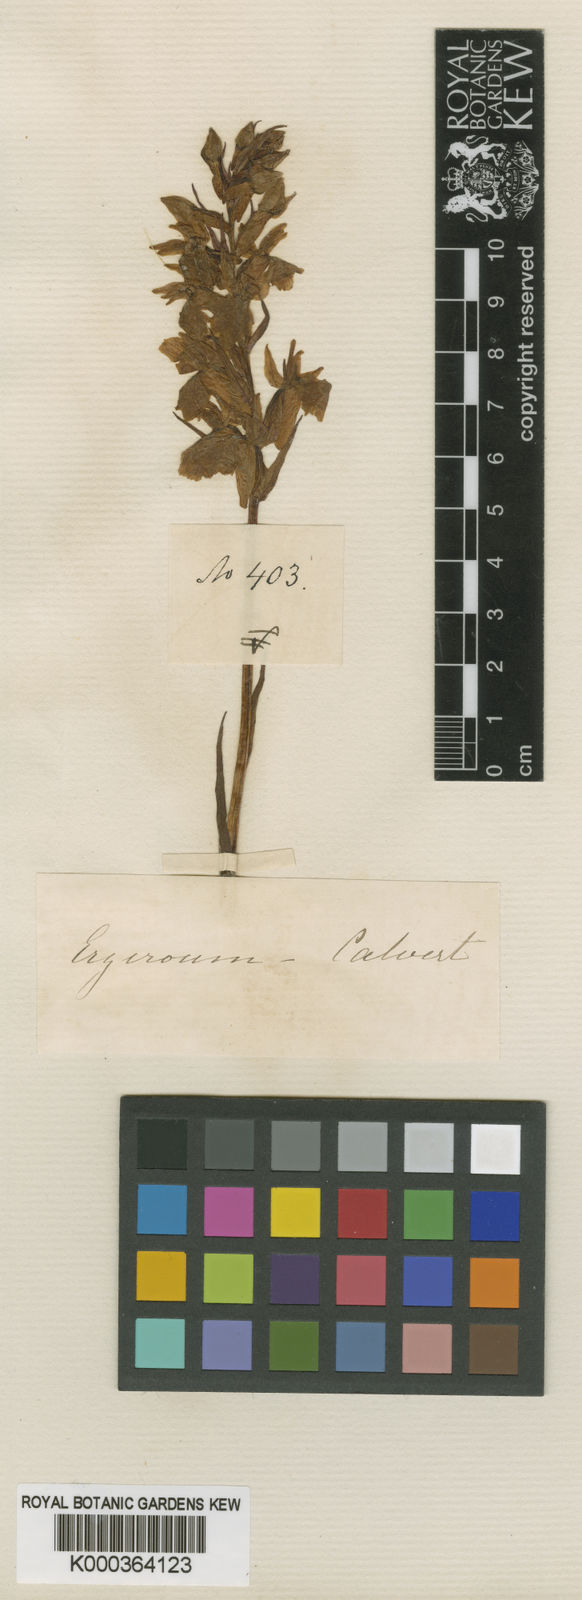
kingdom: Plantae
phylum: Tracheophyta
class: Liliopsida
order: Asparagales
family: Orchidaceae
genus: Orchis
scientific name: Orchis
